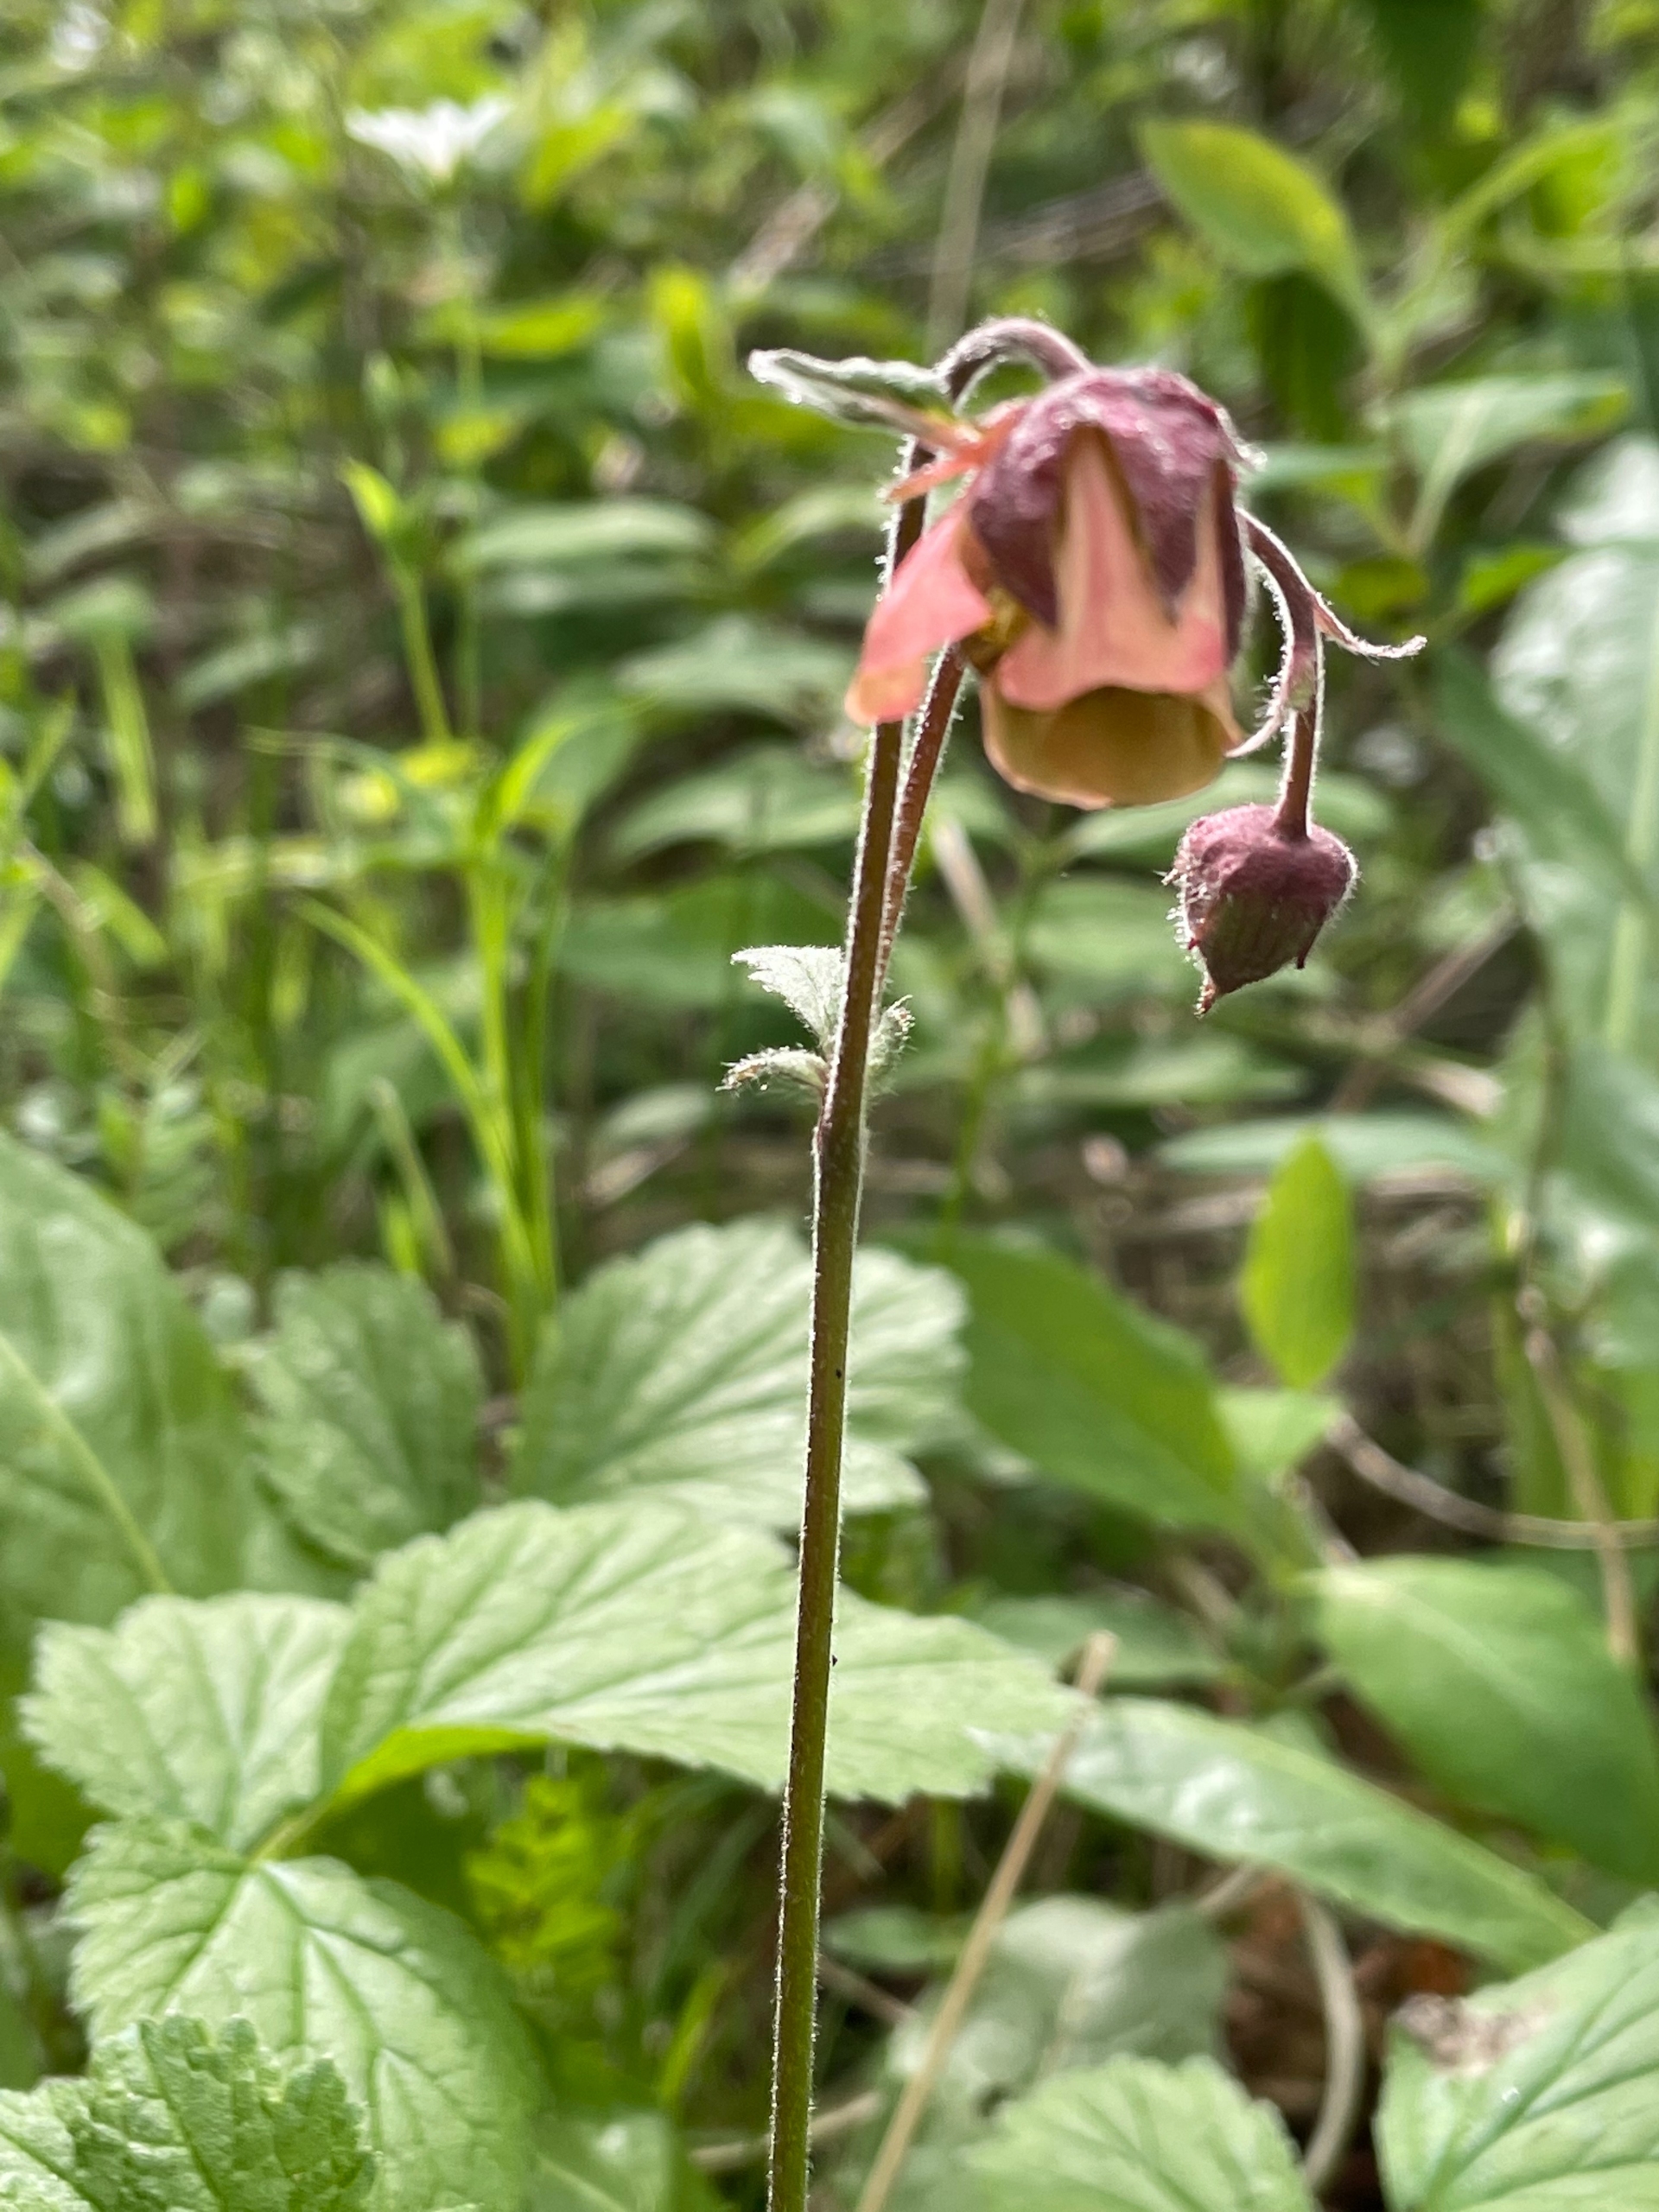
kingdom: Plantae
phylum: Tracheophyta
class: Magnoliopsida
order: Rosales
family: Rosaceae
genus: Geum
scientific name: Geum rivale
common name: Eng-nellikerod
